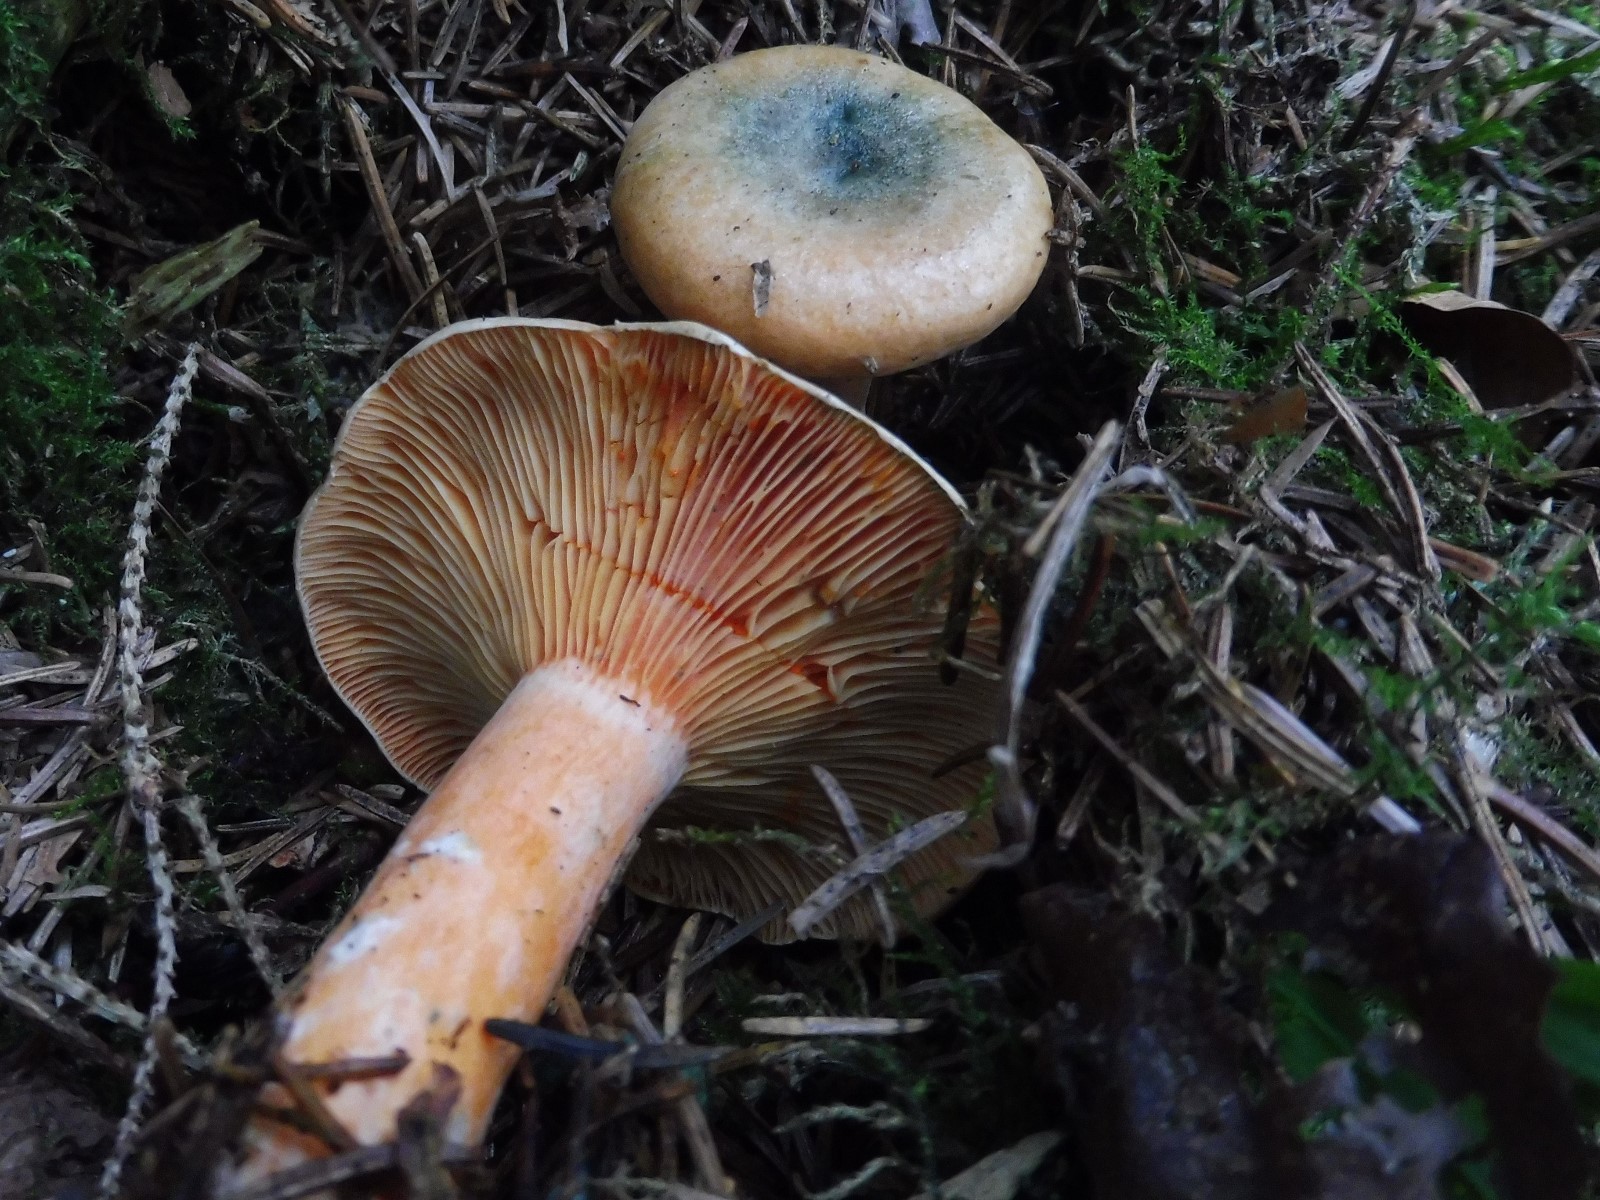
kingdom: Fungi
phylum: Basidiomycota
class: Agaricomycetes
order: Russulales
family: Russulaceae
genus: Lactarius
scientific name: Lactarius deterrimus
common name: gran-mælkehat
